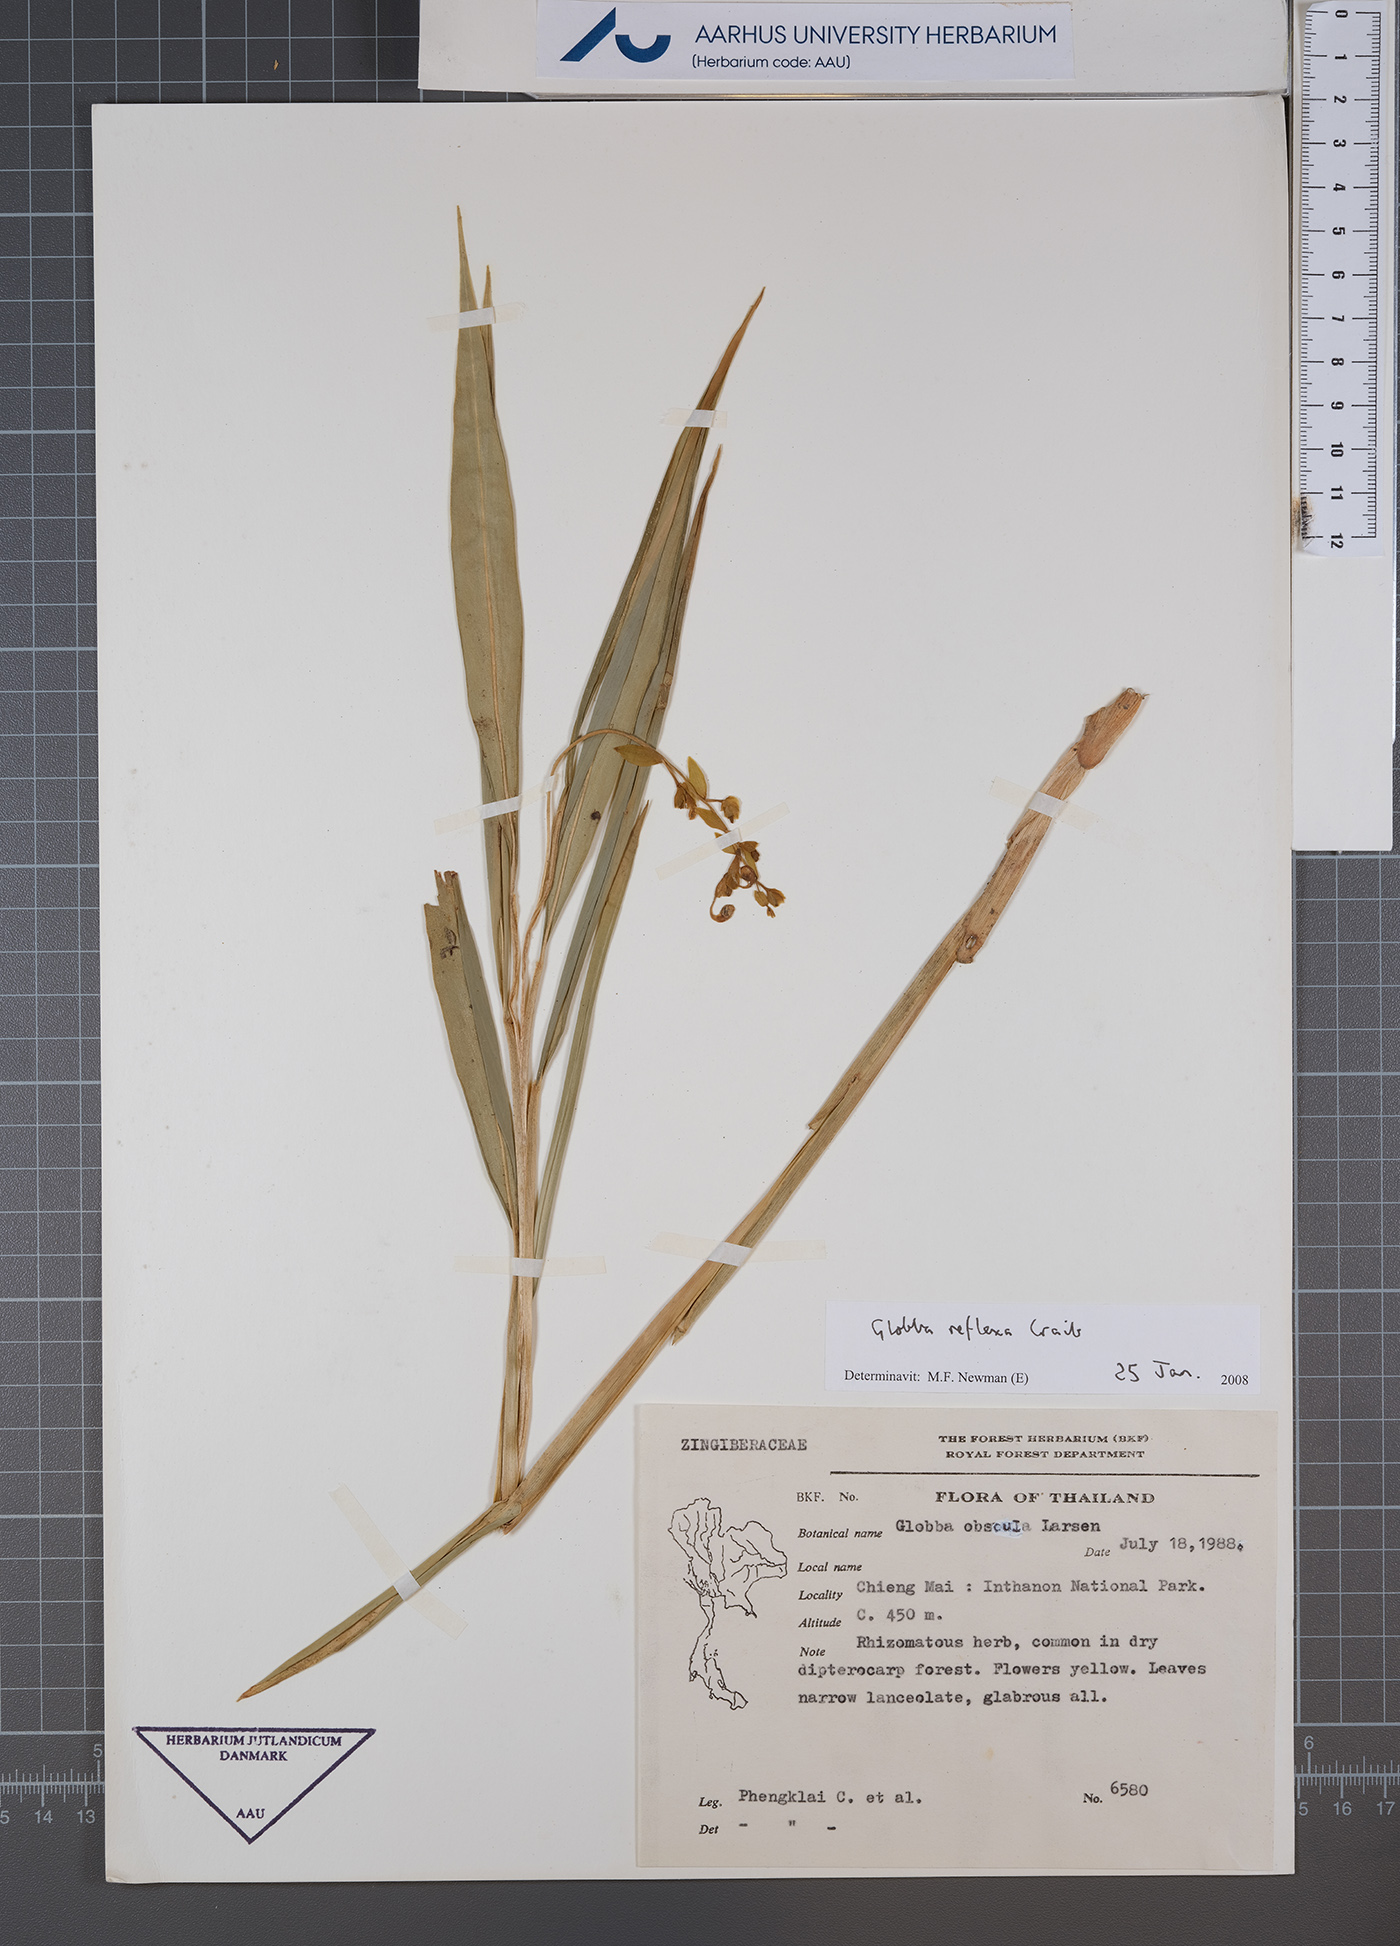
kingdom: Plantae
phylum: Tracheophyta
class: Liliopsida
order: Zingiberales
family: Zingiberaceae
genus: Globba
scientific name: Globba reflexa
